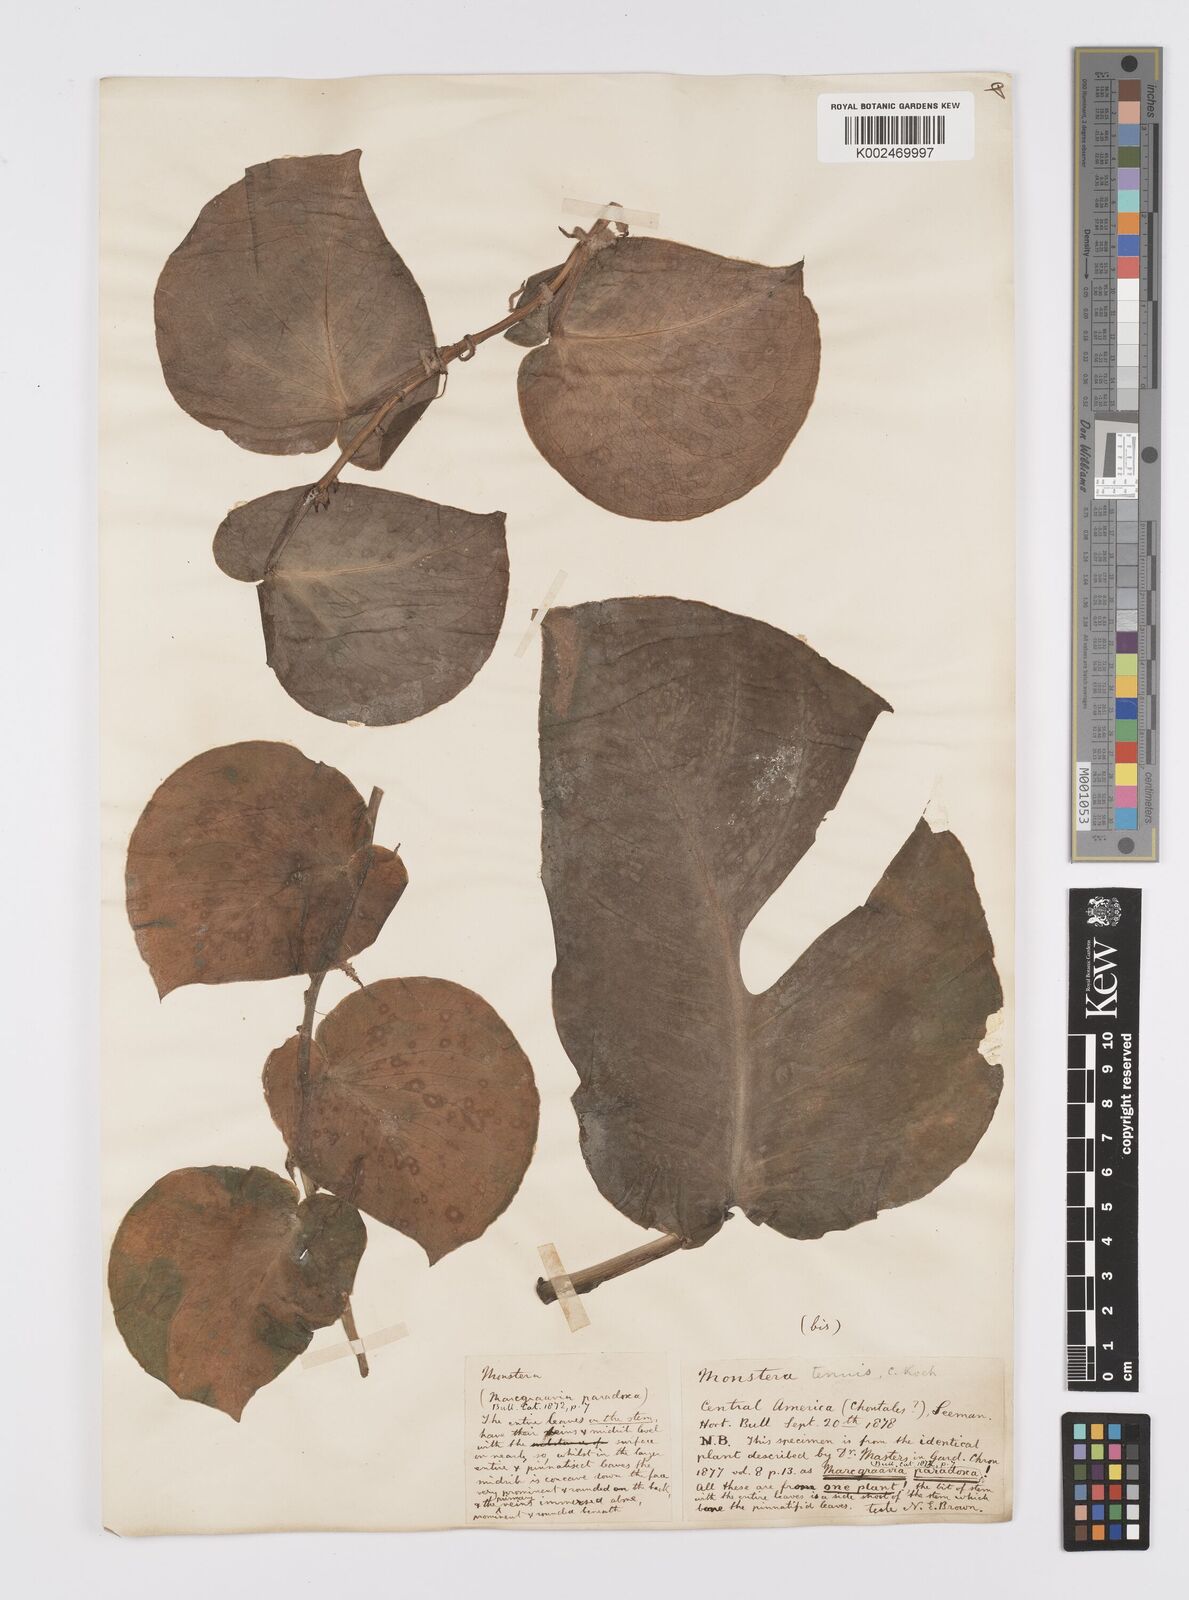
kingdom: Plantae
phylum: Tracheophyta
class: Liliopsida
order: Alismatales
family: Araceae
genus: Monstera
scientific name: Monstera tenuis
